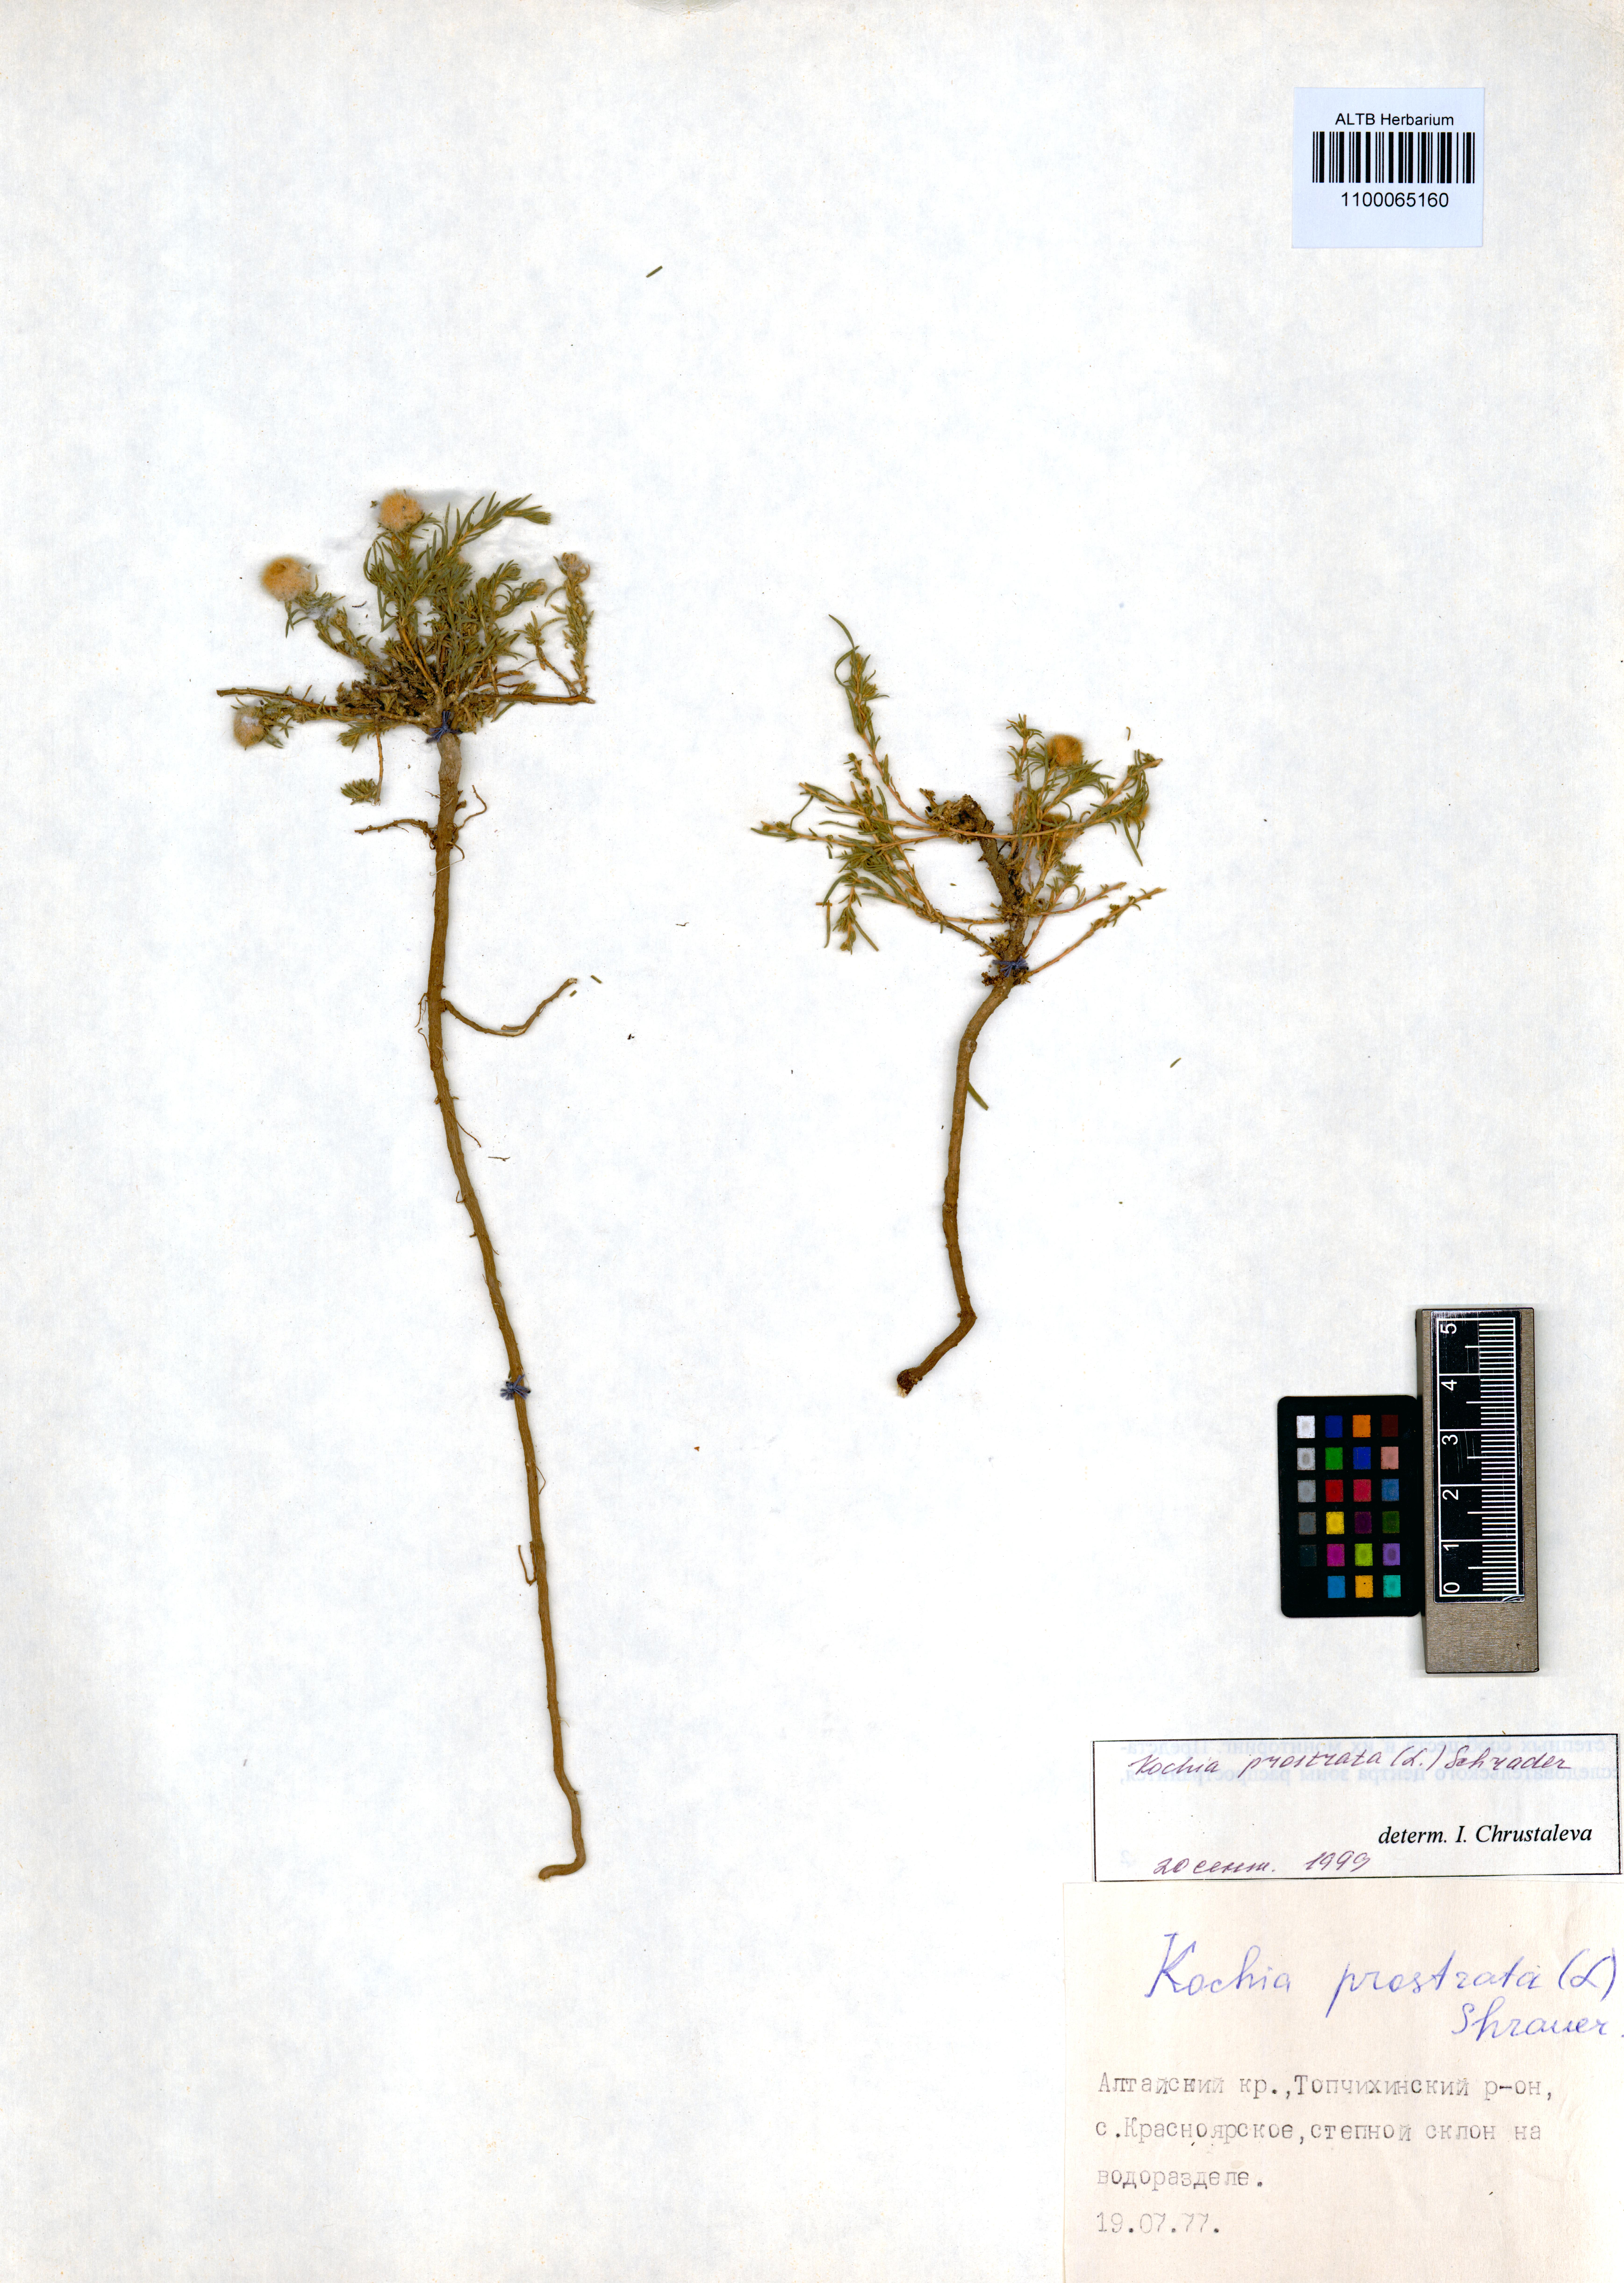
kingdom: Plantae
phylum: Tracheophyta
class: Magnoliopsida
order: Caryophyllales
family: Amaranthaceae
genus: Bassia
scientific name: Bassia prostrata
